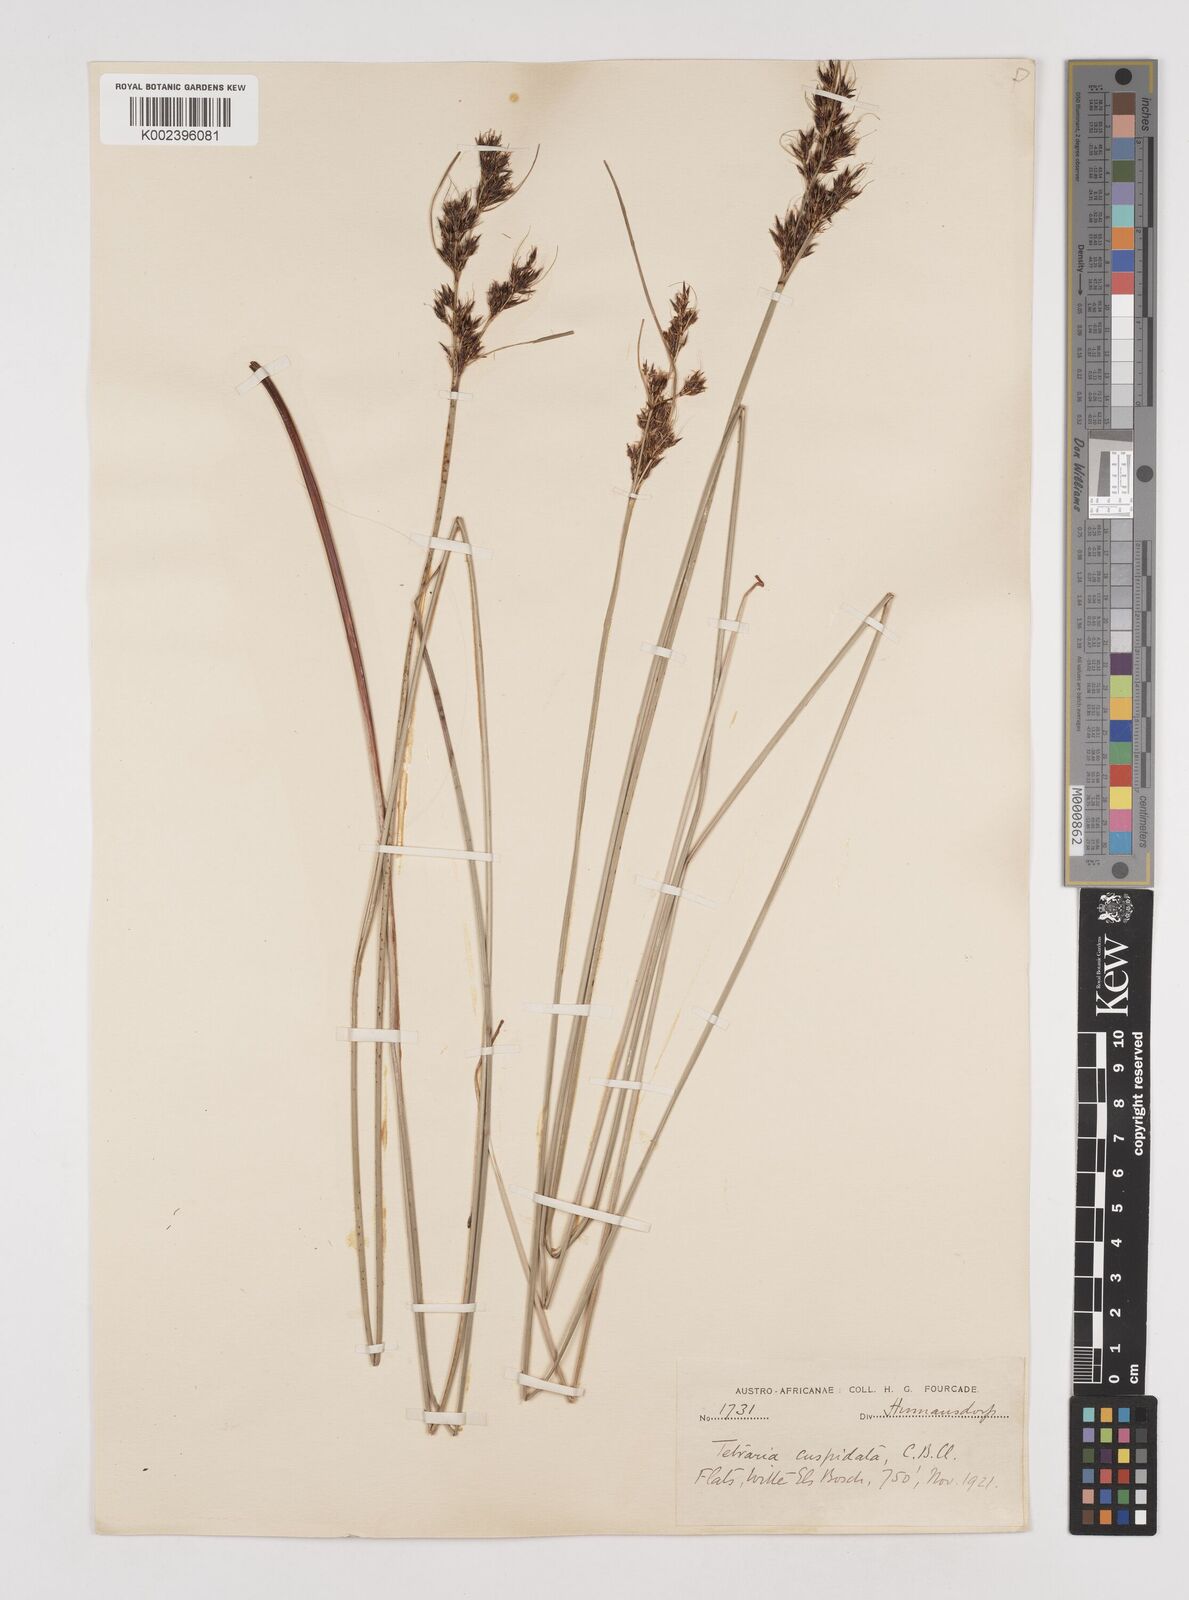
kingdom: Plantae
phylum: Tracheophyta
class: Liliopsida
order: Poales
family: Cyperaceae
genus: Schoenus
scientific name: Schoenus cuspidatus
